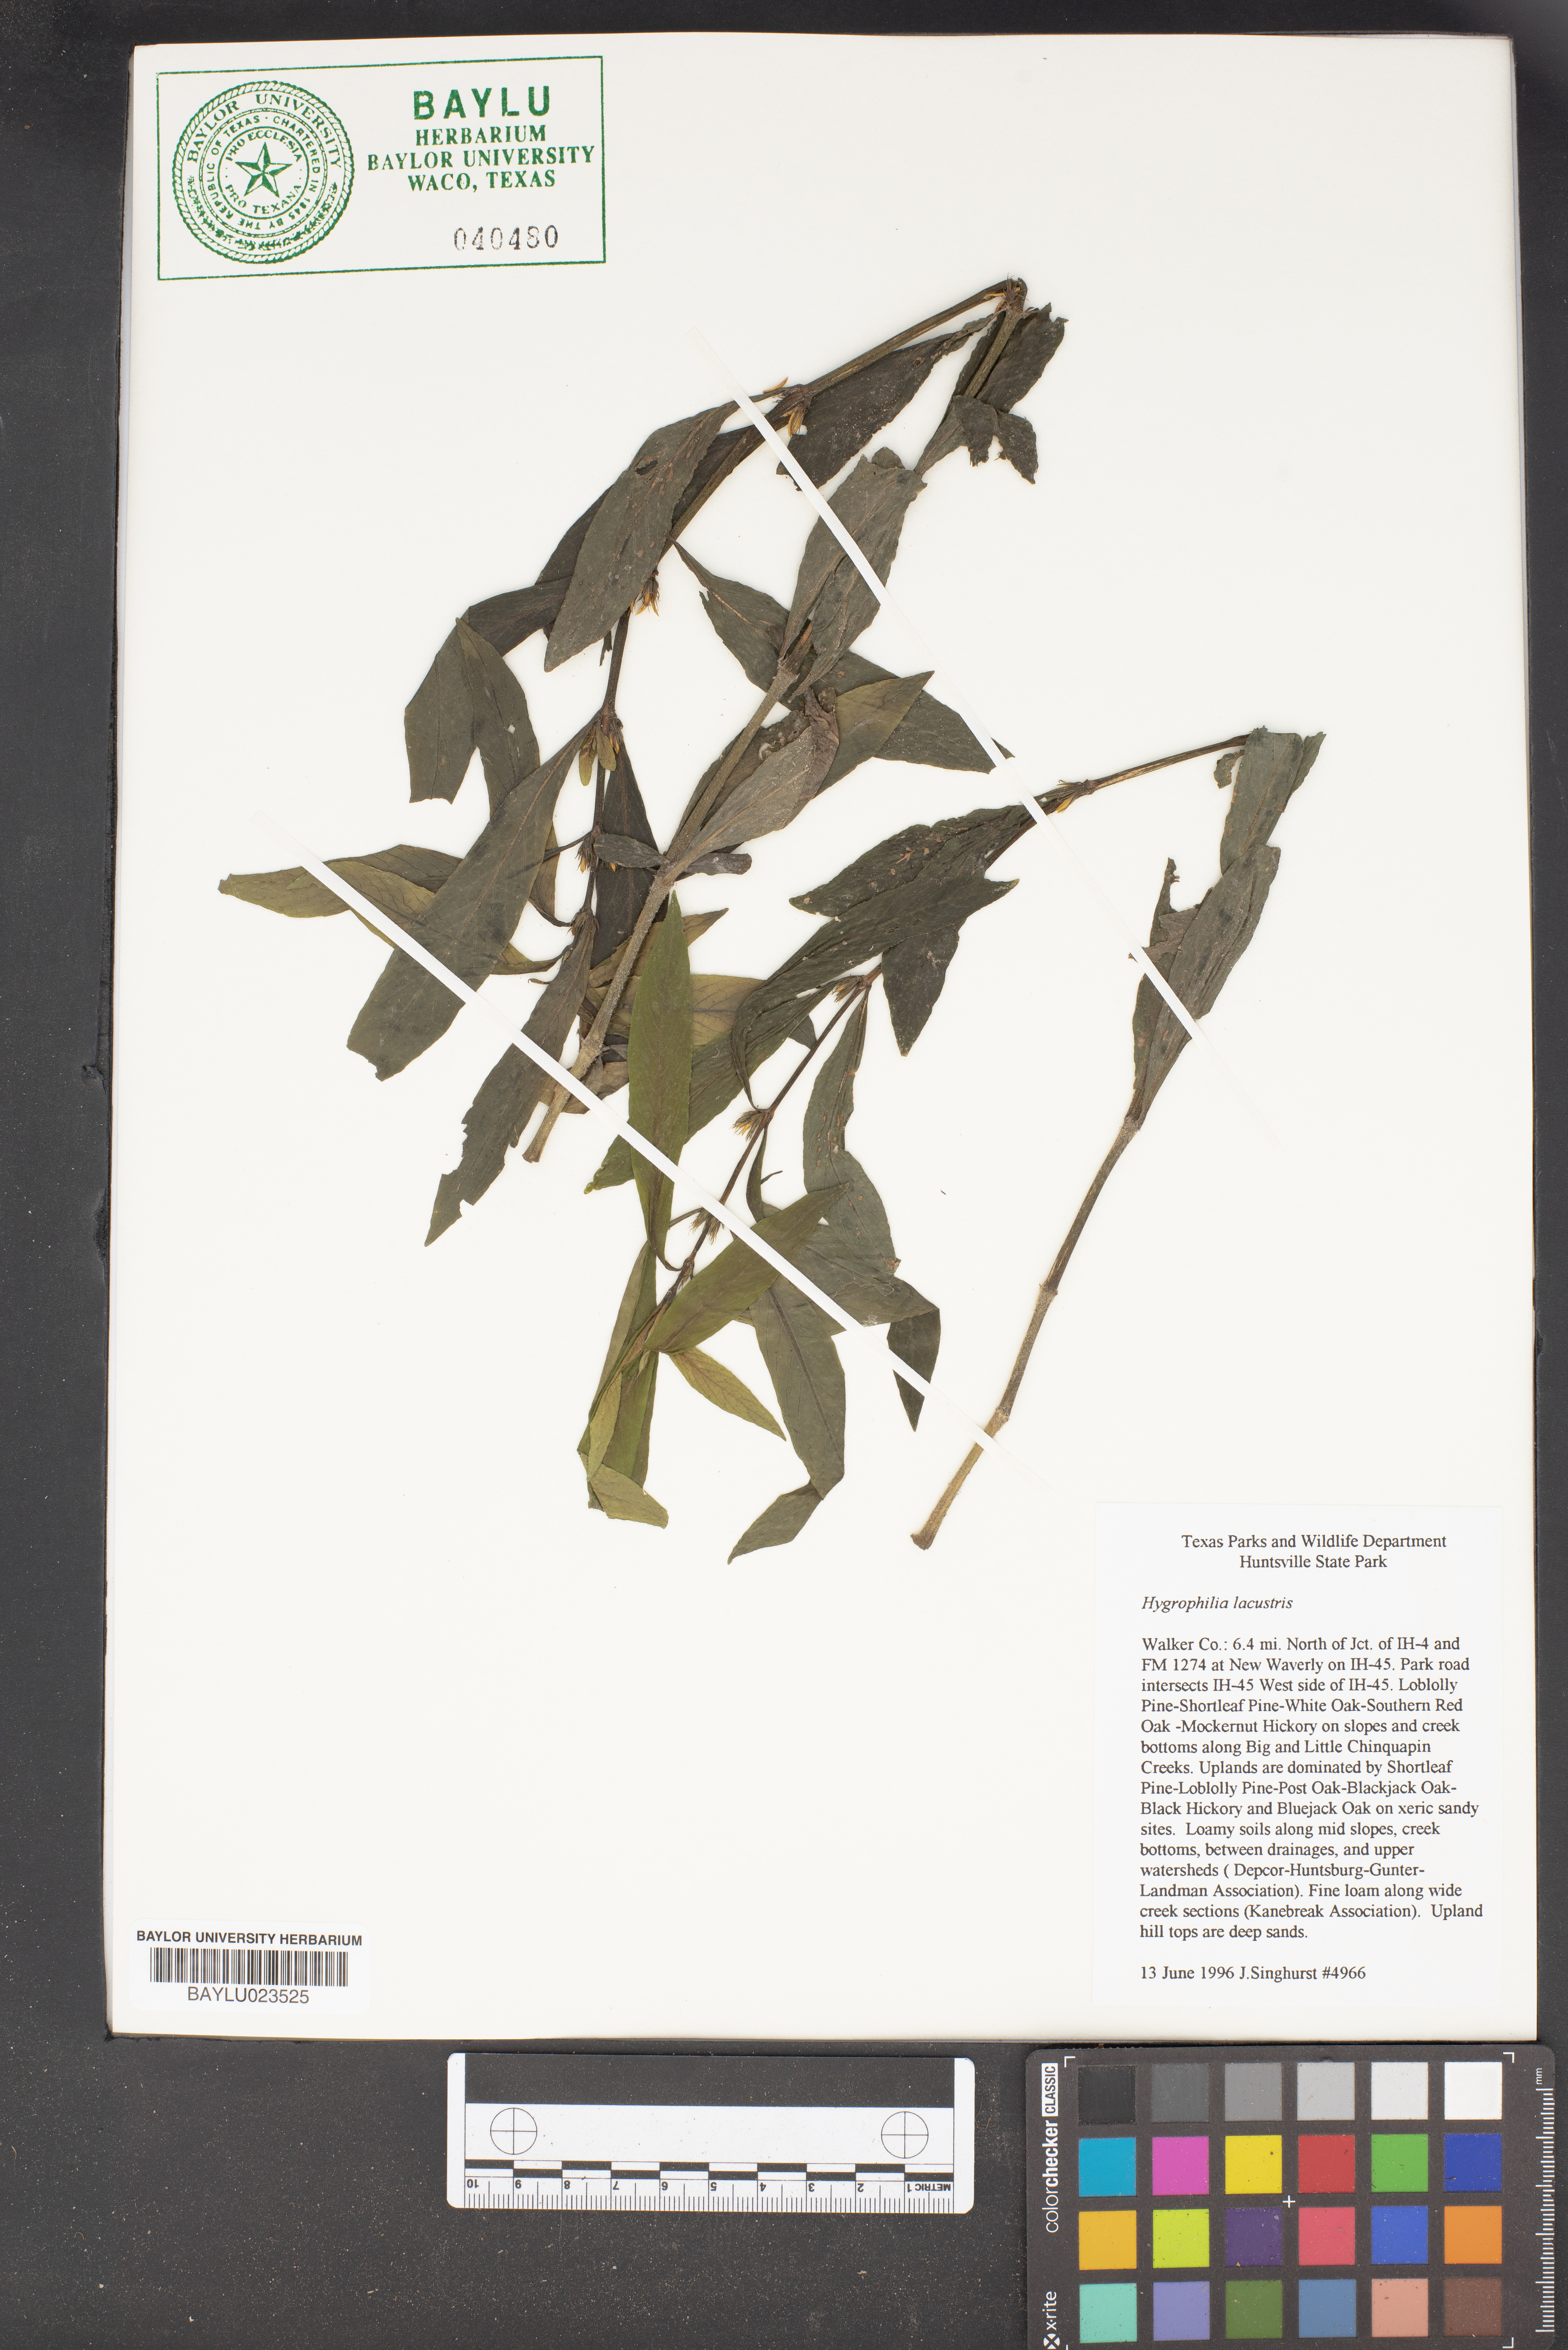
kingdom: Plantae
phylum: Tracheophyta
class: Magnoliopsida
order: Lamiales
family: Acanthaceae
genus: Hygrophila
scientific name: Hygrophila costata
